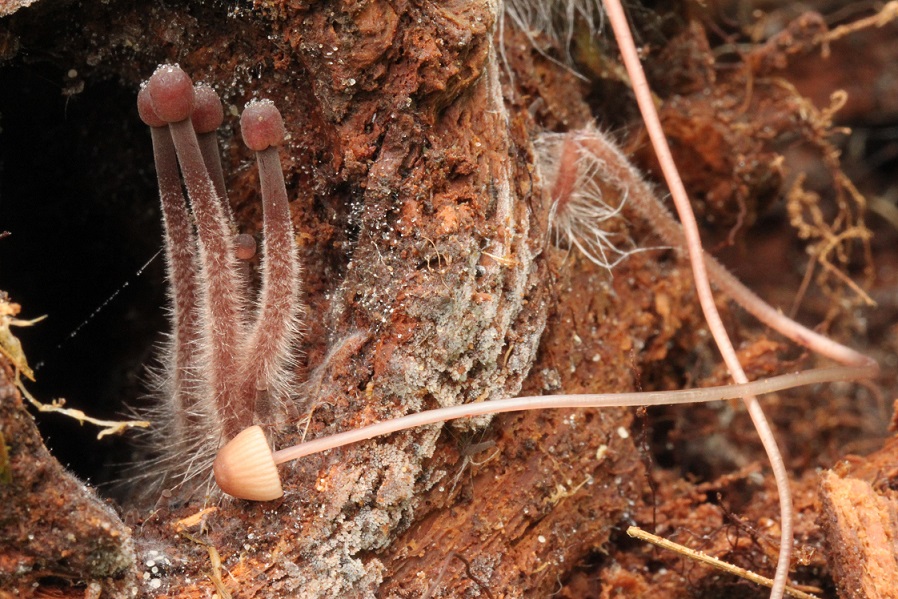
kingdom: Fungi
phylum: Basidiomycota
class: Agaricomycetes
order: Agaricales
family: Mycenaceae
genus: Mycena
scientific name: Mycena sanguinolenta
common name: rødmælket huesvamp
